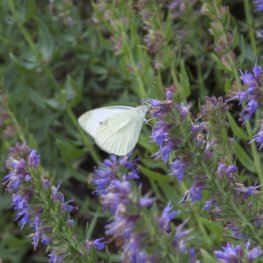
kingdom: Animalia
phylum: Arthropoda
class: Insecta
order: Lepidoptera
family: Pieridae
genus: Pieris
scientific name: Pieris rapae
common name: Cabbage White
